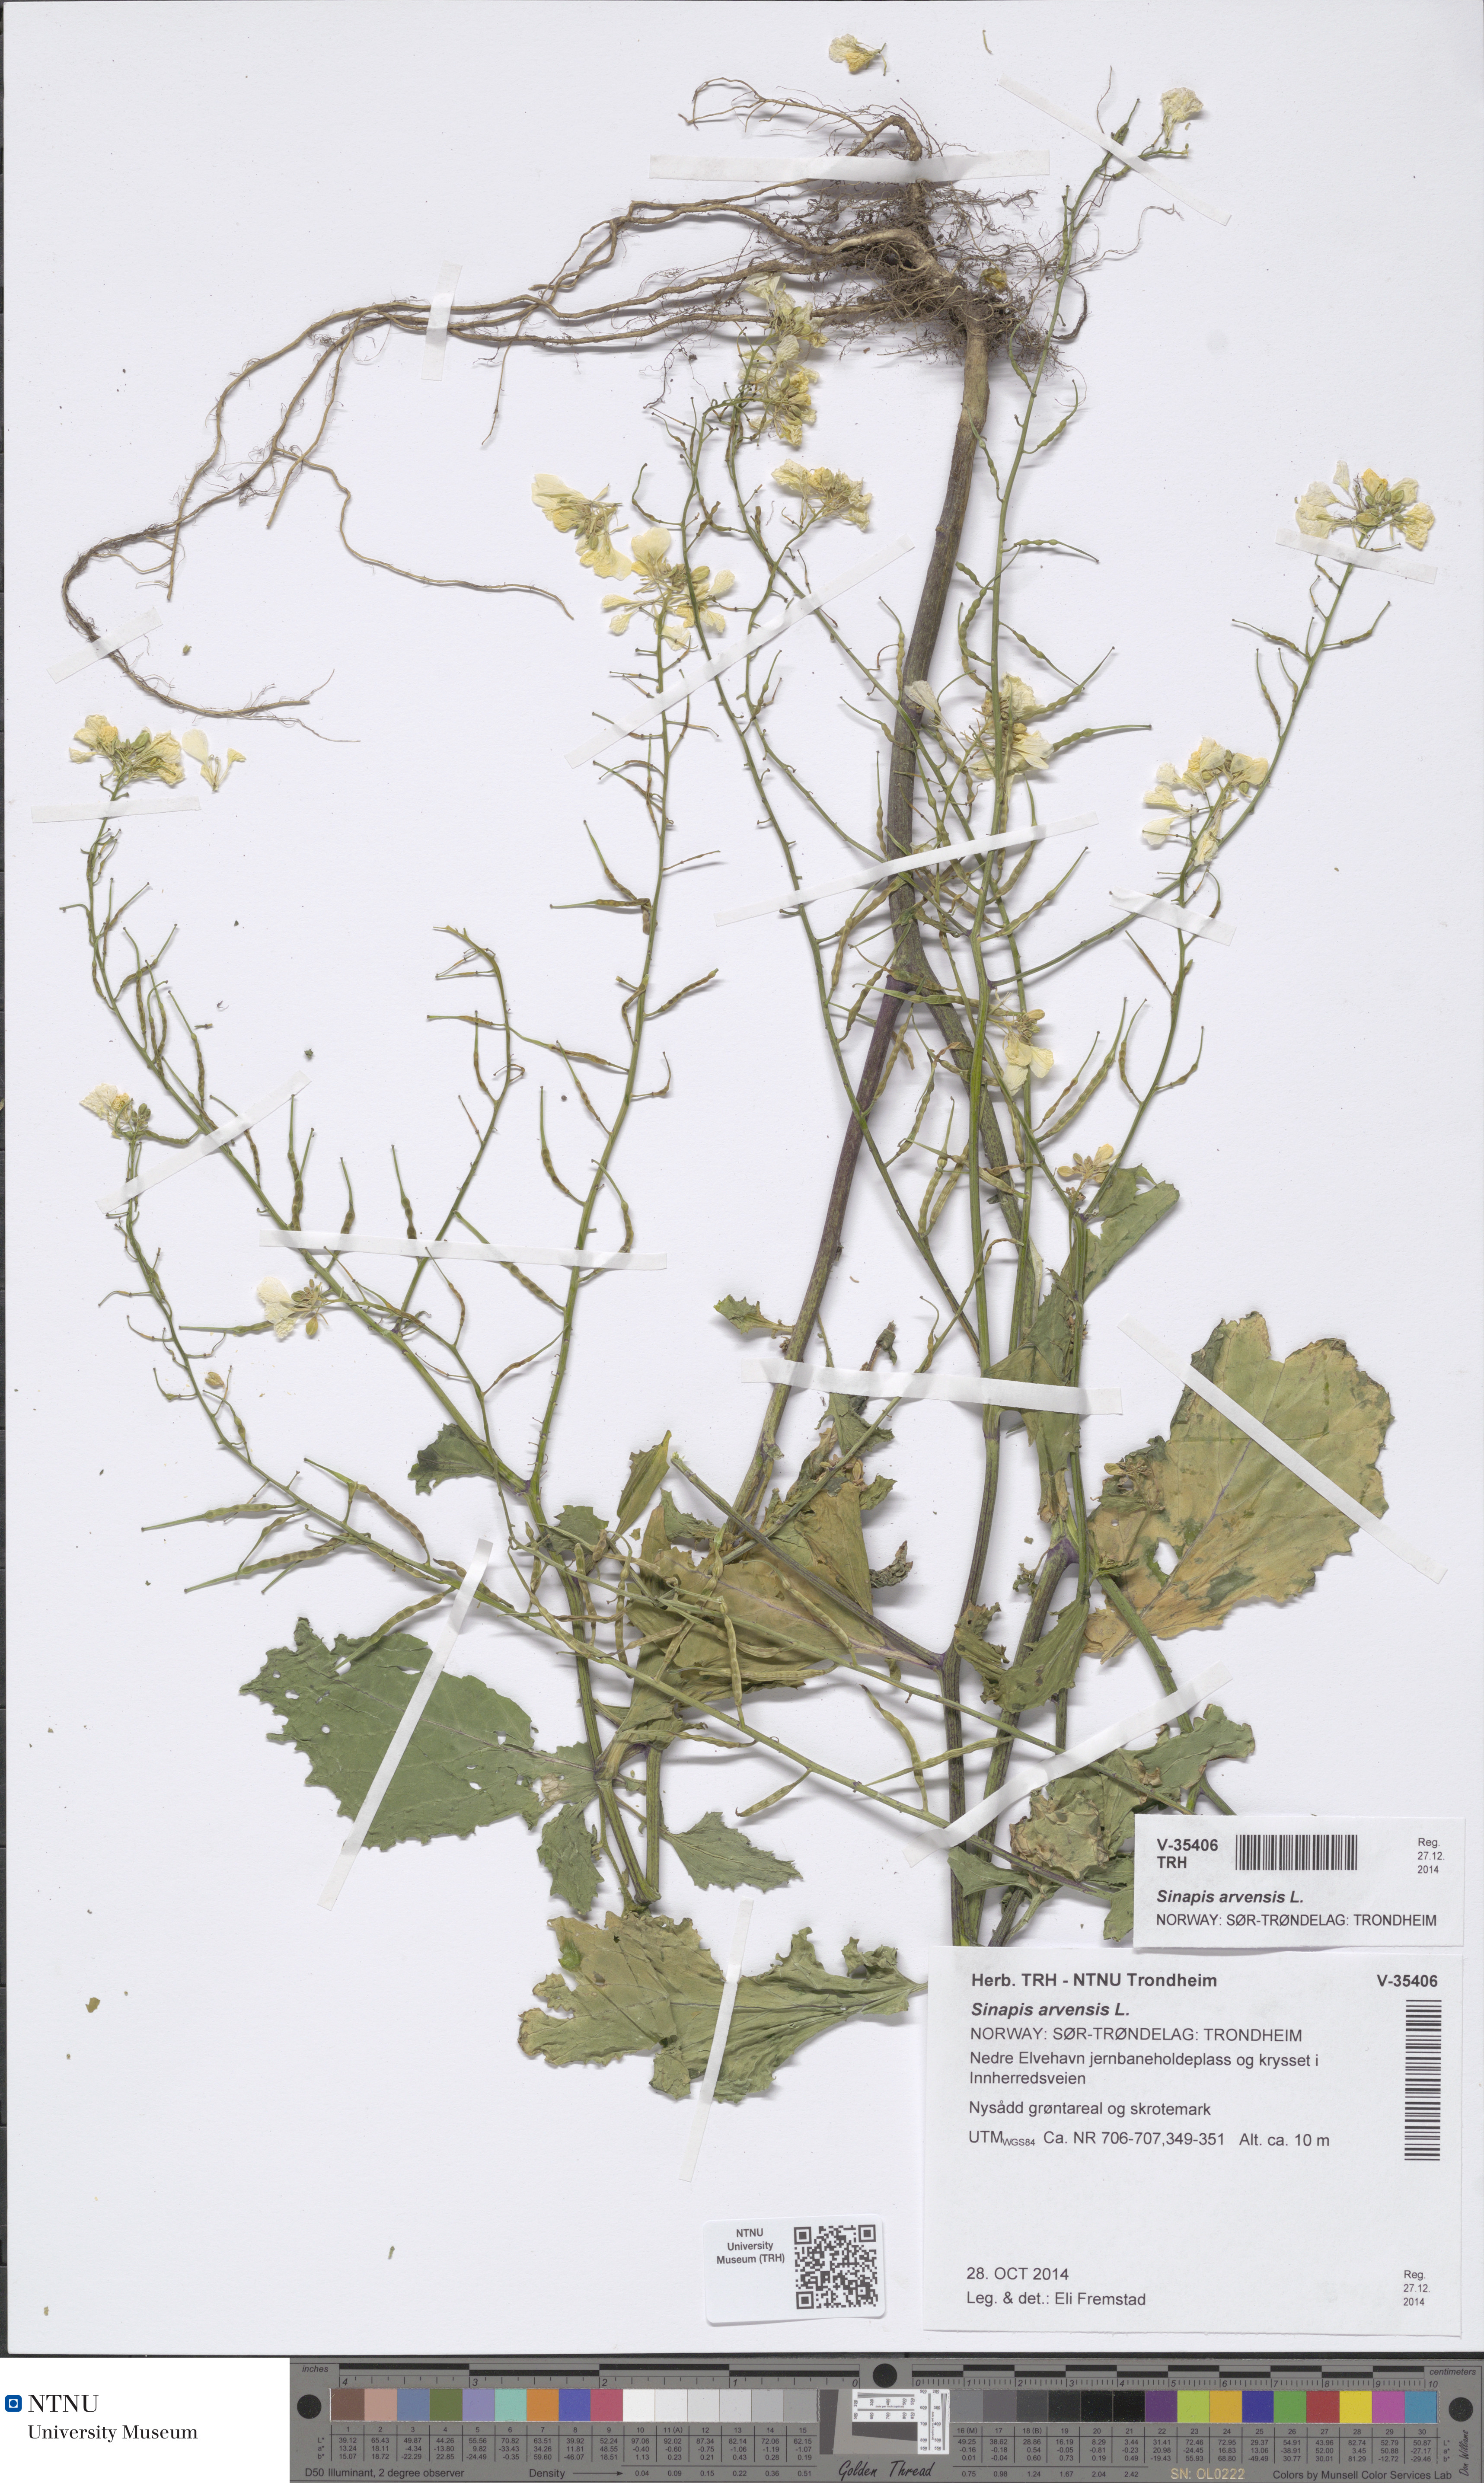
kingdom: Plantae
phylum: Tracheophyta
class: Magnoliopsida
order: Brassicales
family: Brassicaceae
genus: Sinapis
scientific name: Sinapis arvensis
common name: Charlock
